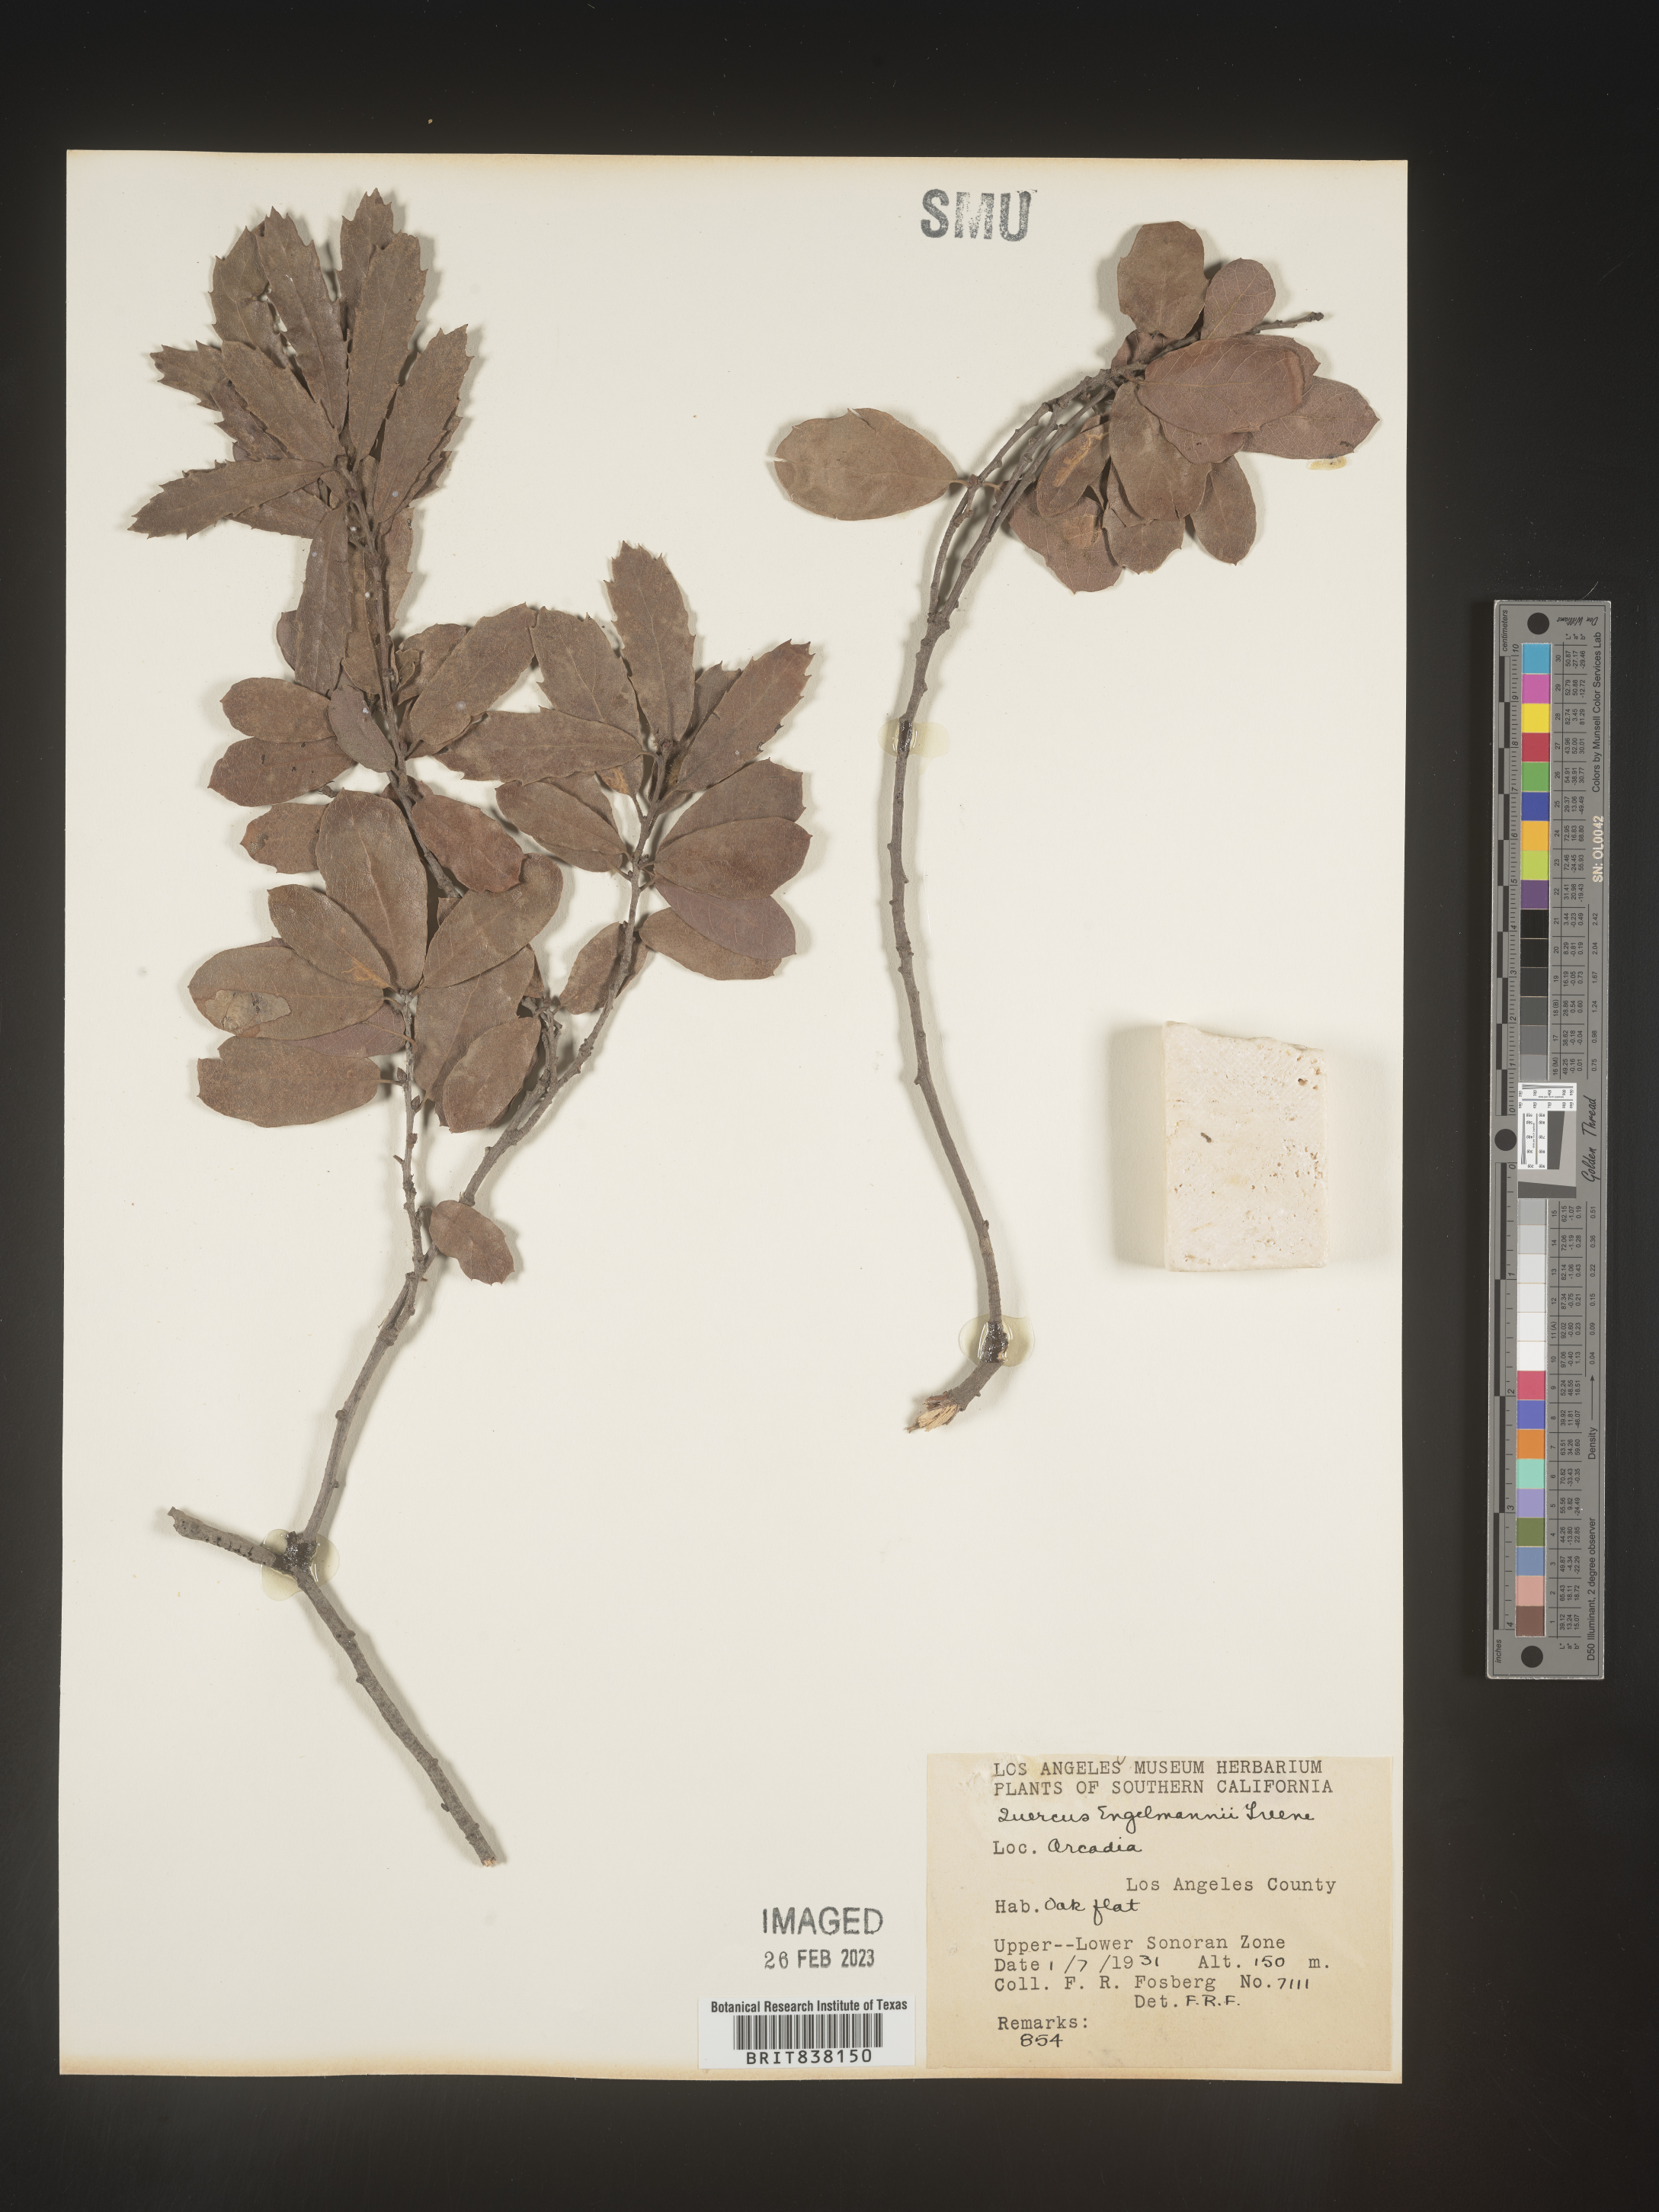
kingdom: Plantae
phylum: Tracheophyta
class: Magnoliopsida
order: Fagales
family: Fagaceae
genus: Quercus
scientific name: Quercus
